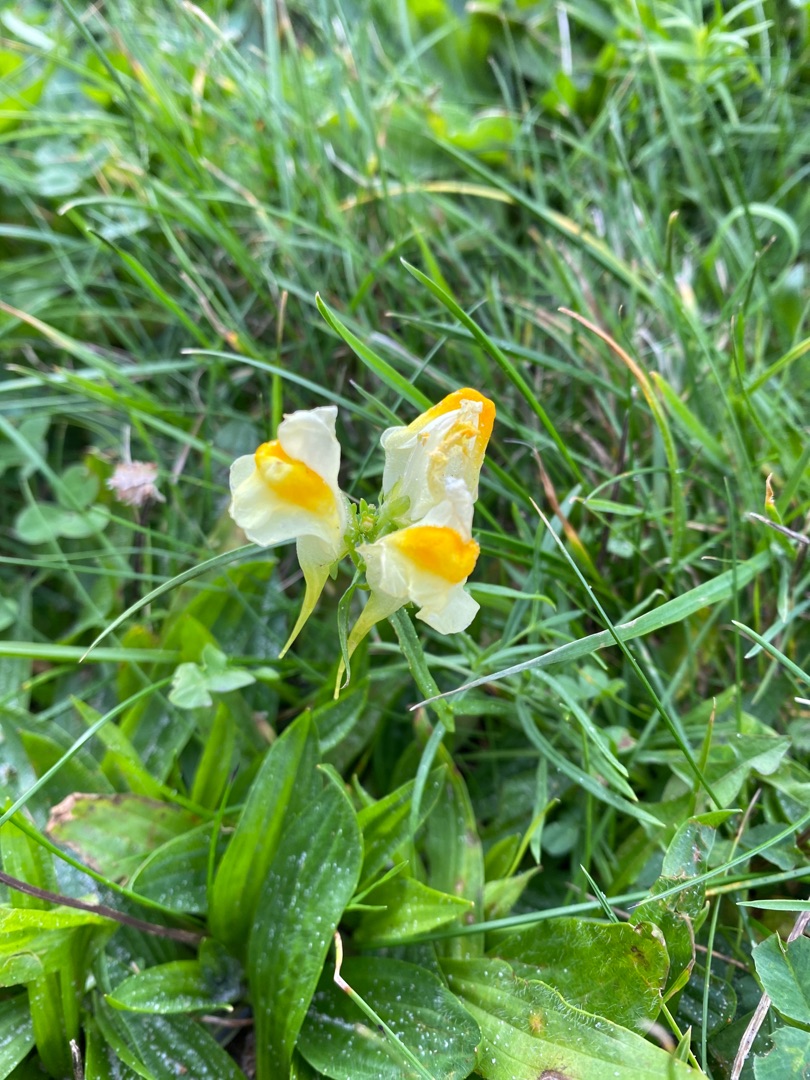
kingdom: Plantae
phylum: Tracheophyta
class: Magnoliopsida
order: Lamiales
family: Plantaginaceae
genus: Linaria
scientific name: Linaria vulgaris
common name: Almindelig torskemund
